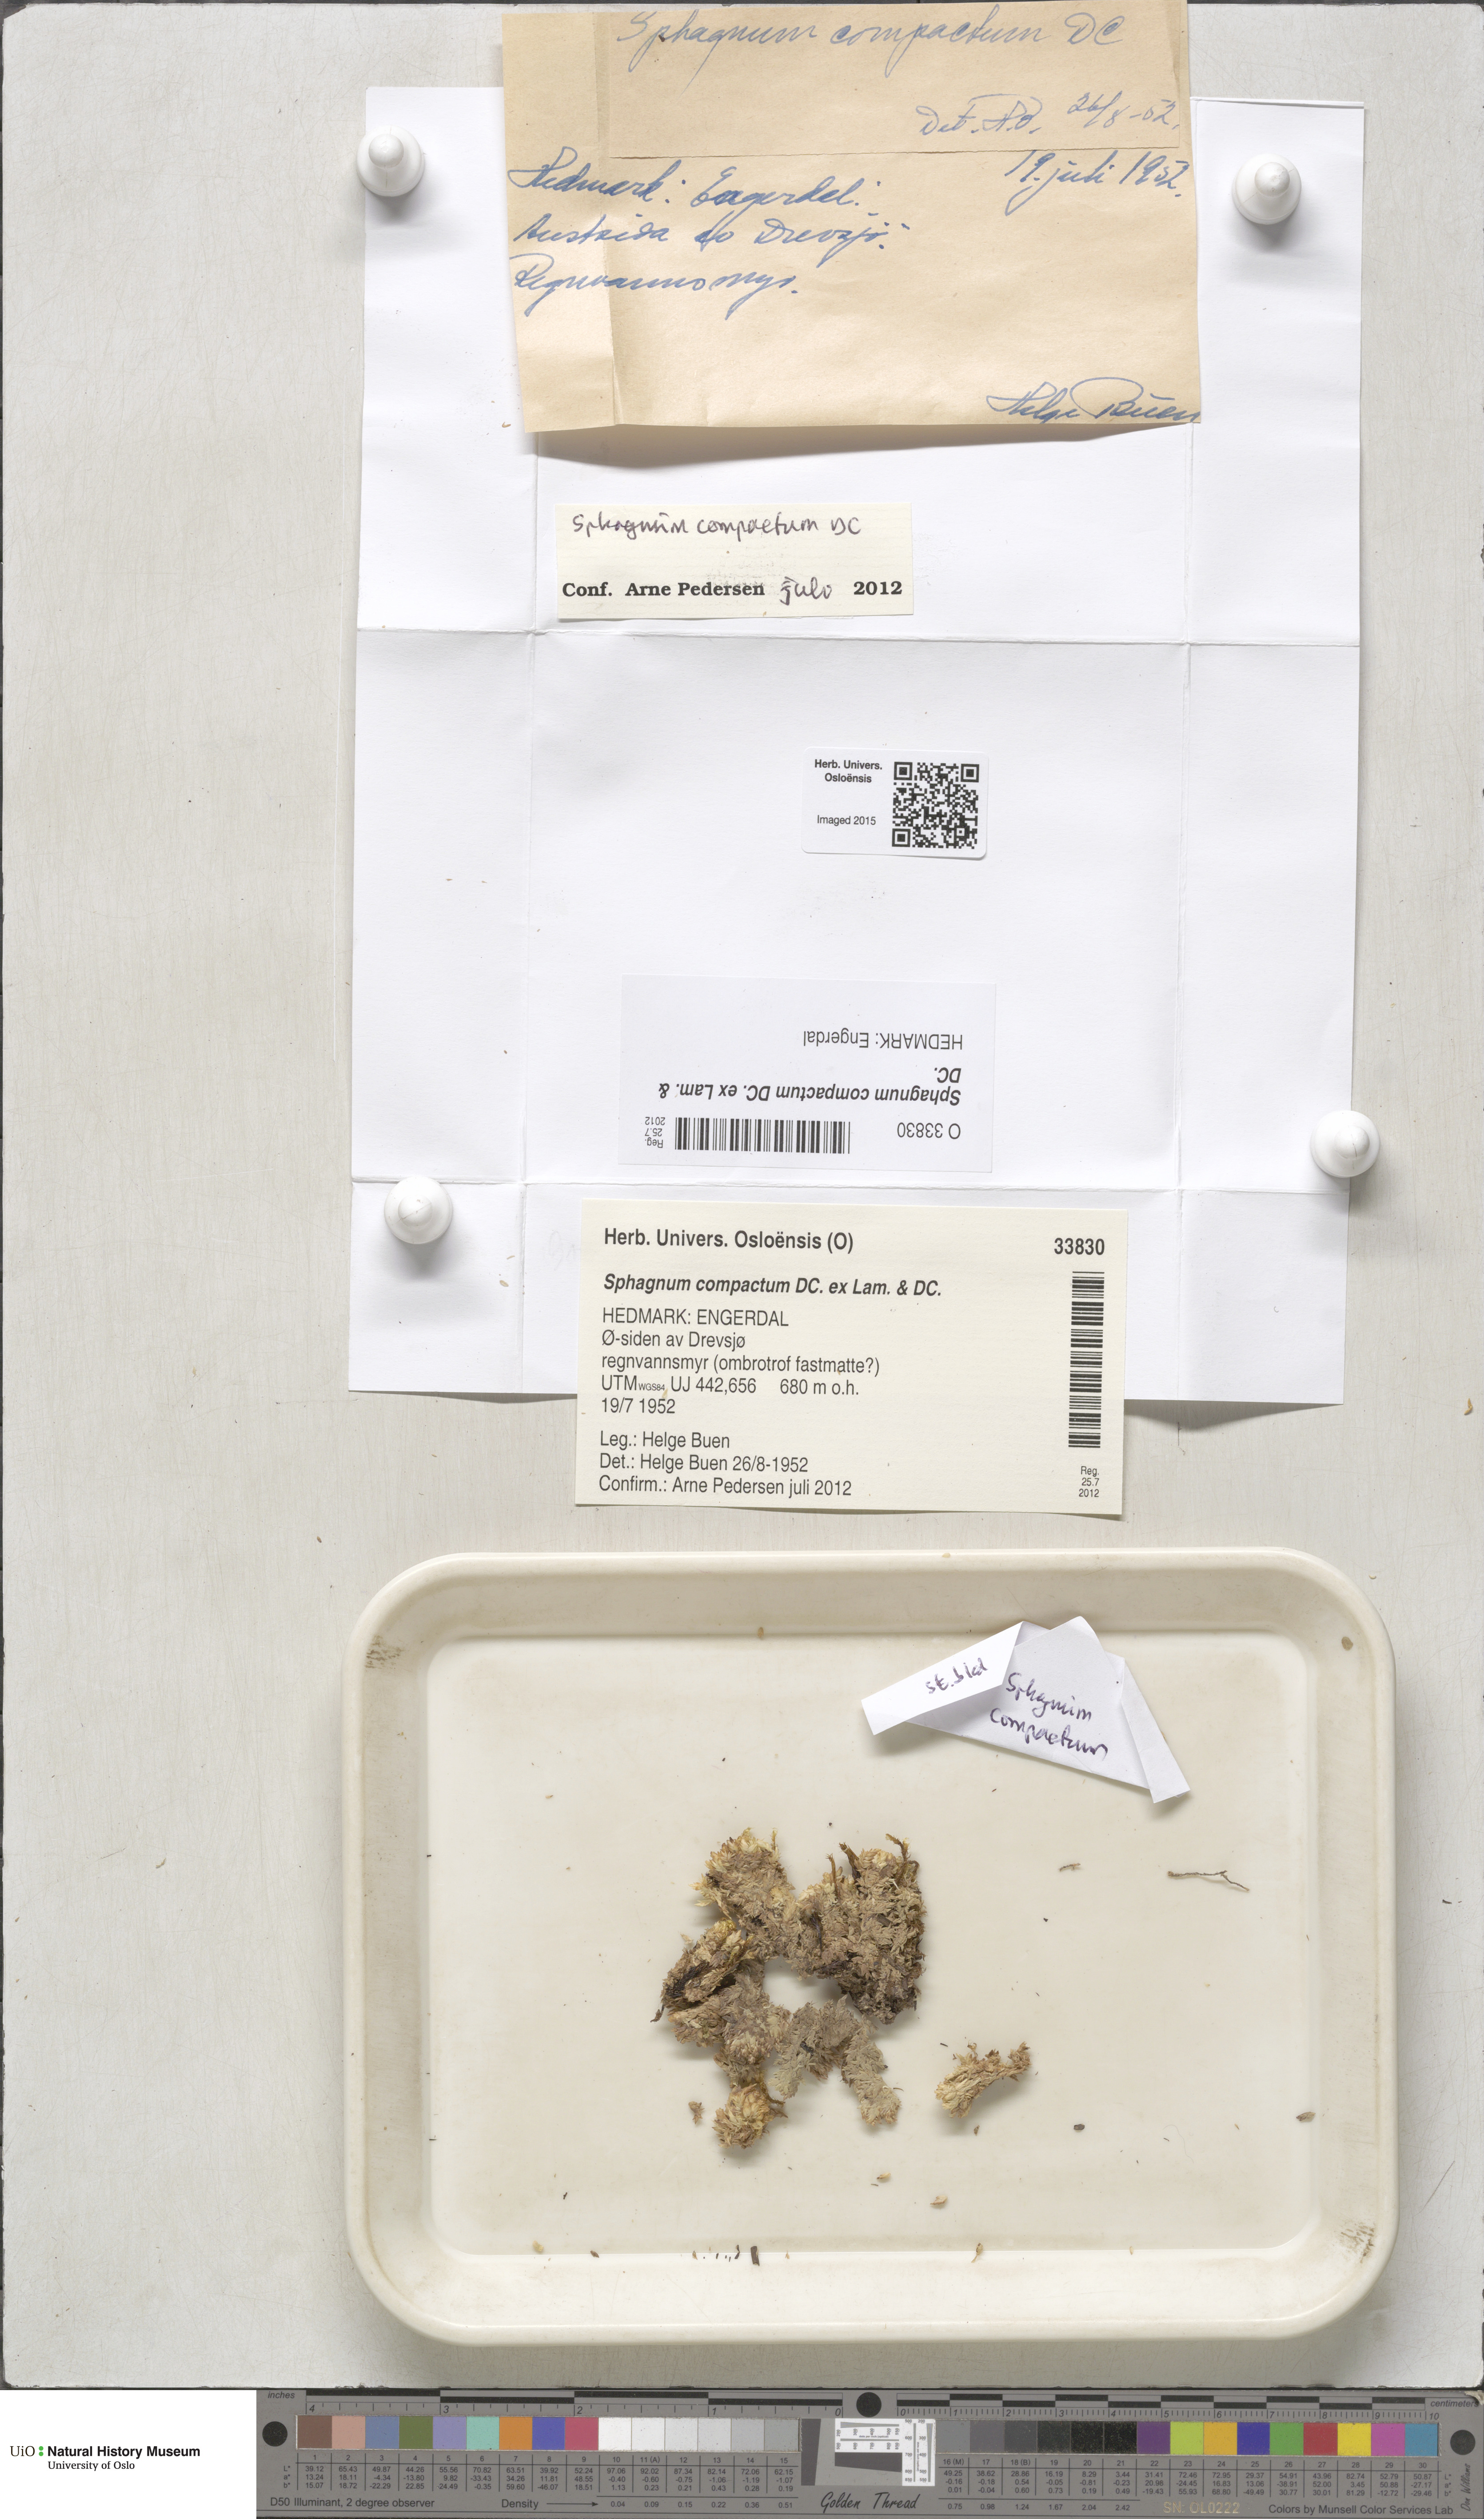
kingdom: Plantae
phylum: Bryophyta
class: Sphagnopsida
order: Sphagnales
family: Sphagnaceae
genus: Sphagnum
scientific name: Sphagnum compactum
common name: Compact peat moss
